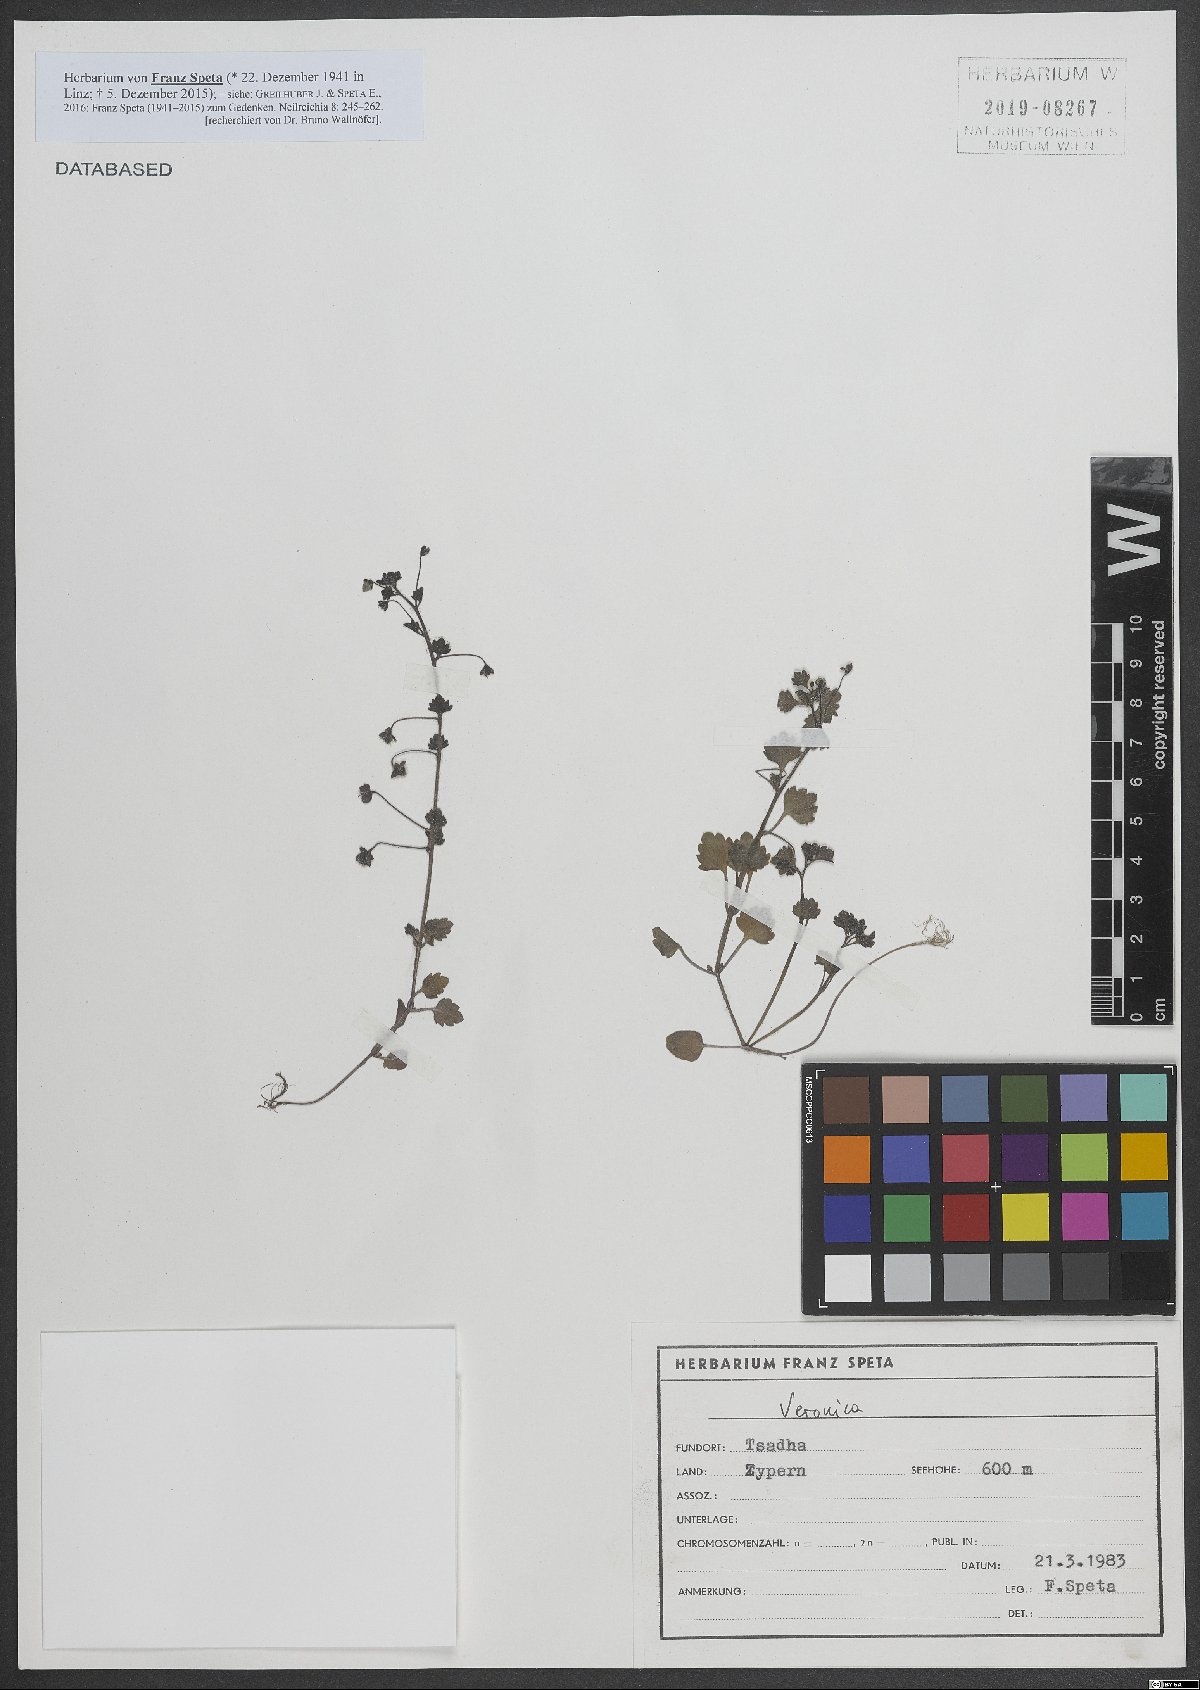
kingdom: Plantae
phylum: Tracheophyta
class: Magnoliopsida
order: Lamiales
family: Plantaginaceae
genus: Veronica
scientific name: Veronica
